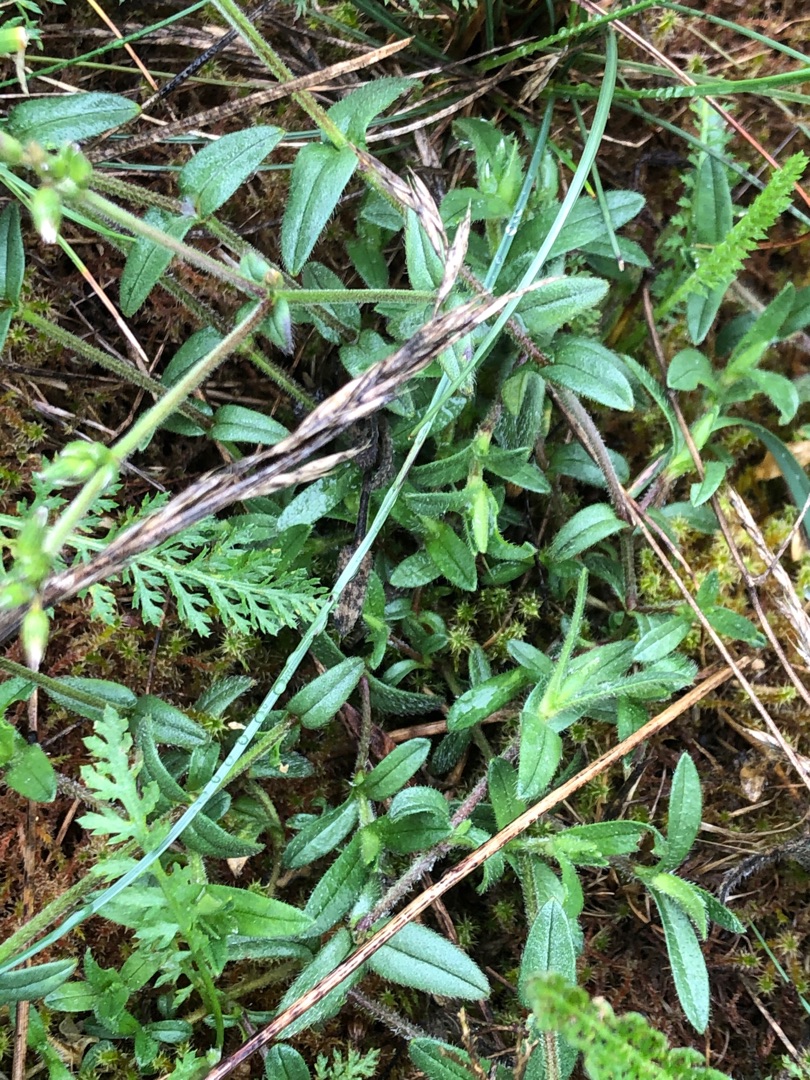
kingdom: Plantae
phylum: Tracheophyta
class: Magnoliopsida
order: Caryophyllales
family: Caryophyllaceae
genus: Cerastium
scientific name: Cerastium fontanum
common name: Almindelig hønsetarm
